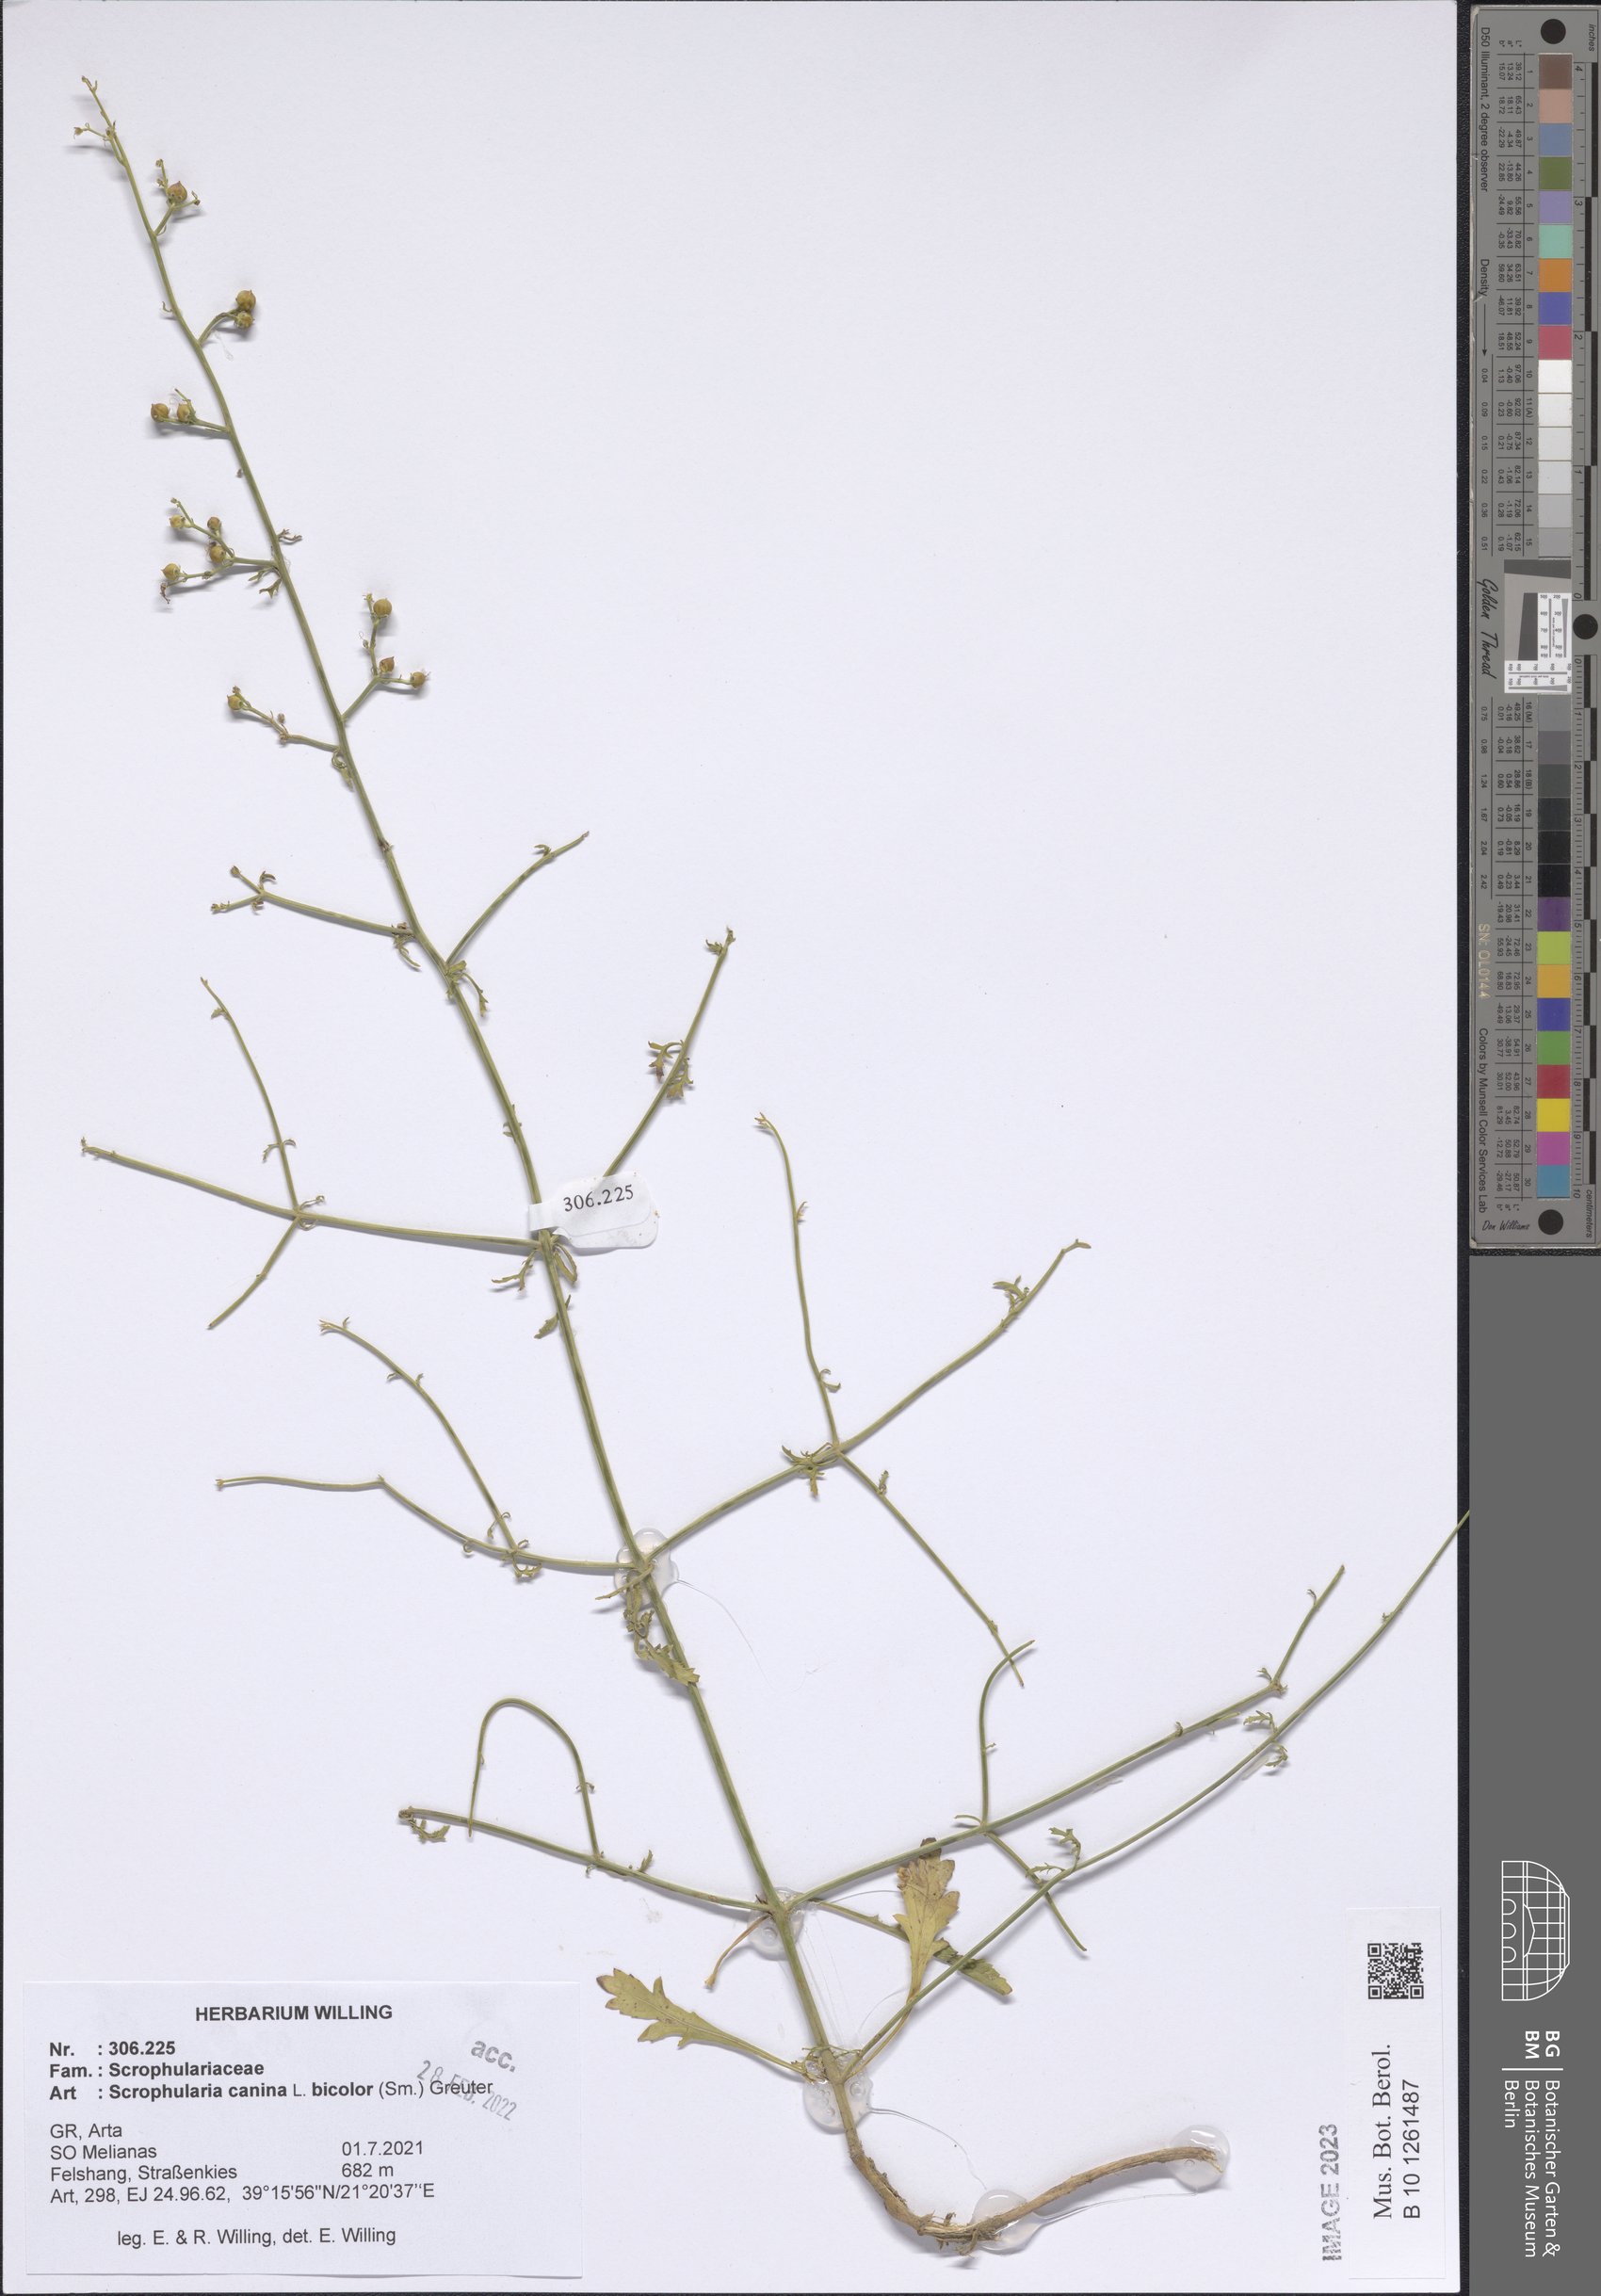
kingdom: Plantae
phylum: Tracheophyta
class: Magnoliopsida
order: Asterales
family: Asteraceae
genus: Sonchus
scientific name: Sonchus oleraceus
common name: Common sowthistle
